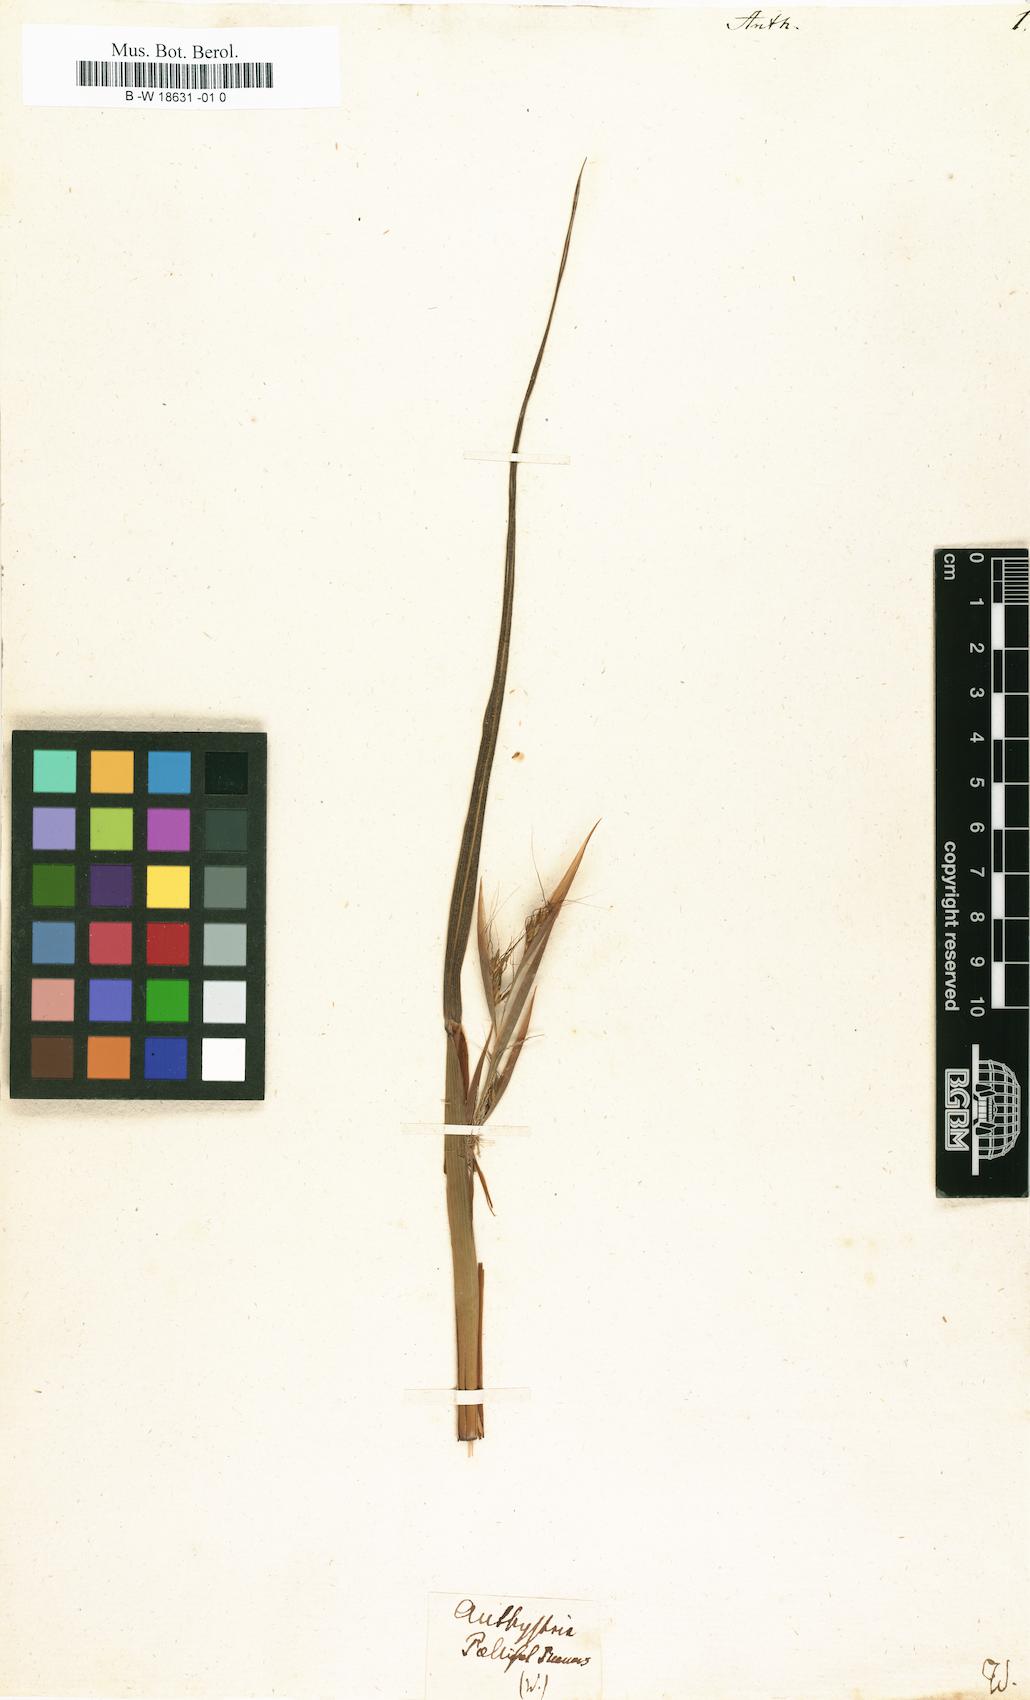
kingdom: Plantae
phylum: Tracheophyta
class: Liliopsida
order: Poales
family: Poaceae
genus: Themeda
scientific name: Themeda
